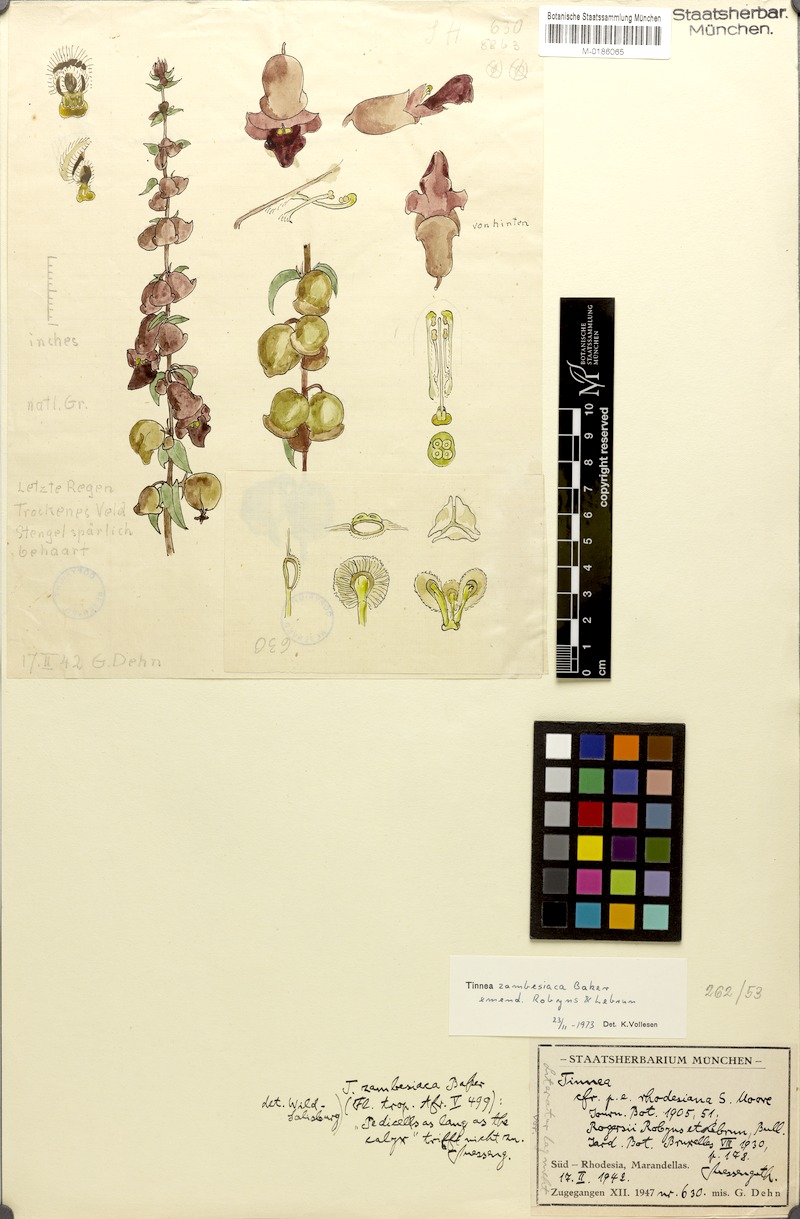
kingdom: Plantae
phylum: Tracheophyta
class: Magnoliopsida
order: Lamiales
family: Lamiaceae
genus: Tinnea
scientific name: Tinnea zambesiaca
